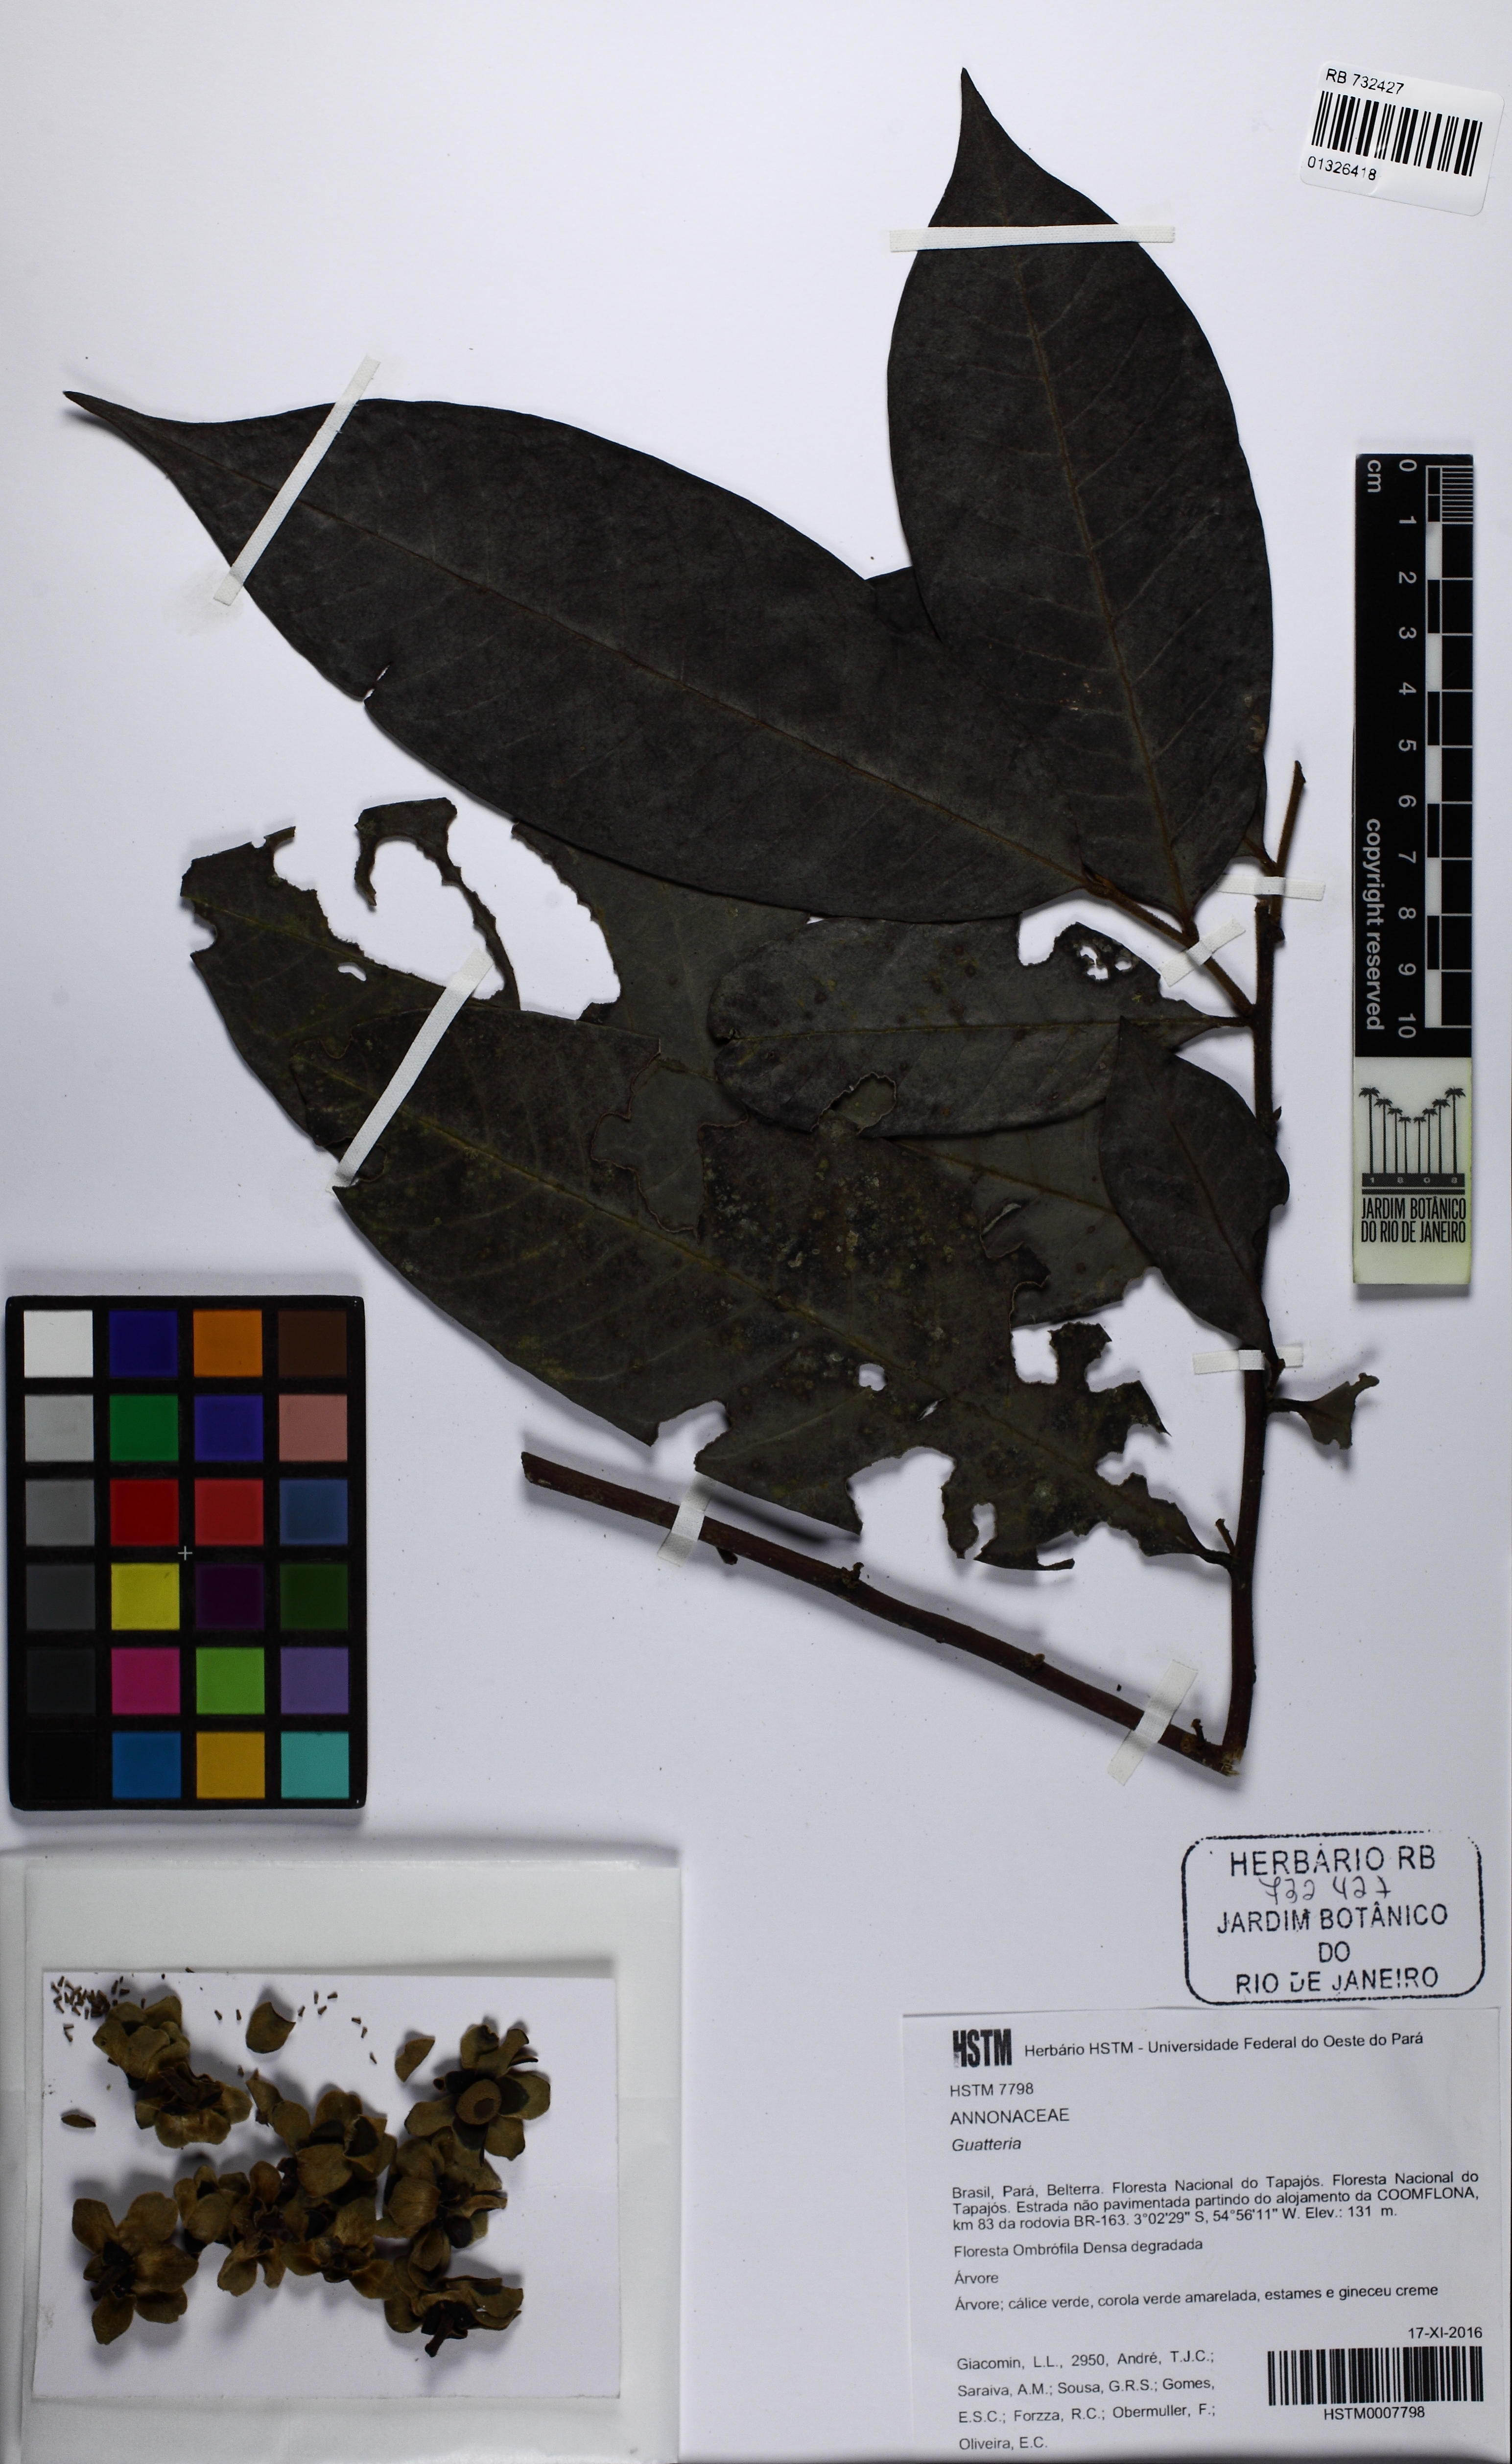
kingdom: Plantae
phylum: Tracheophyta
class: Magnoliopsida
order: Magnoliales
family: Annonaceae
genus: Guatteria
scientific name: Guatteria
